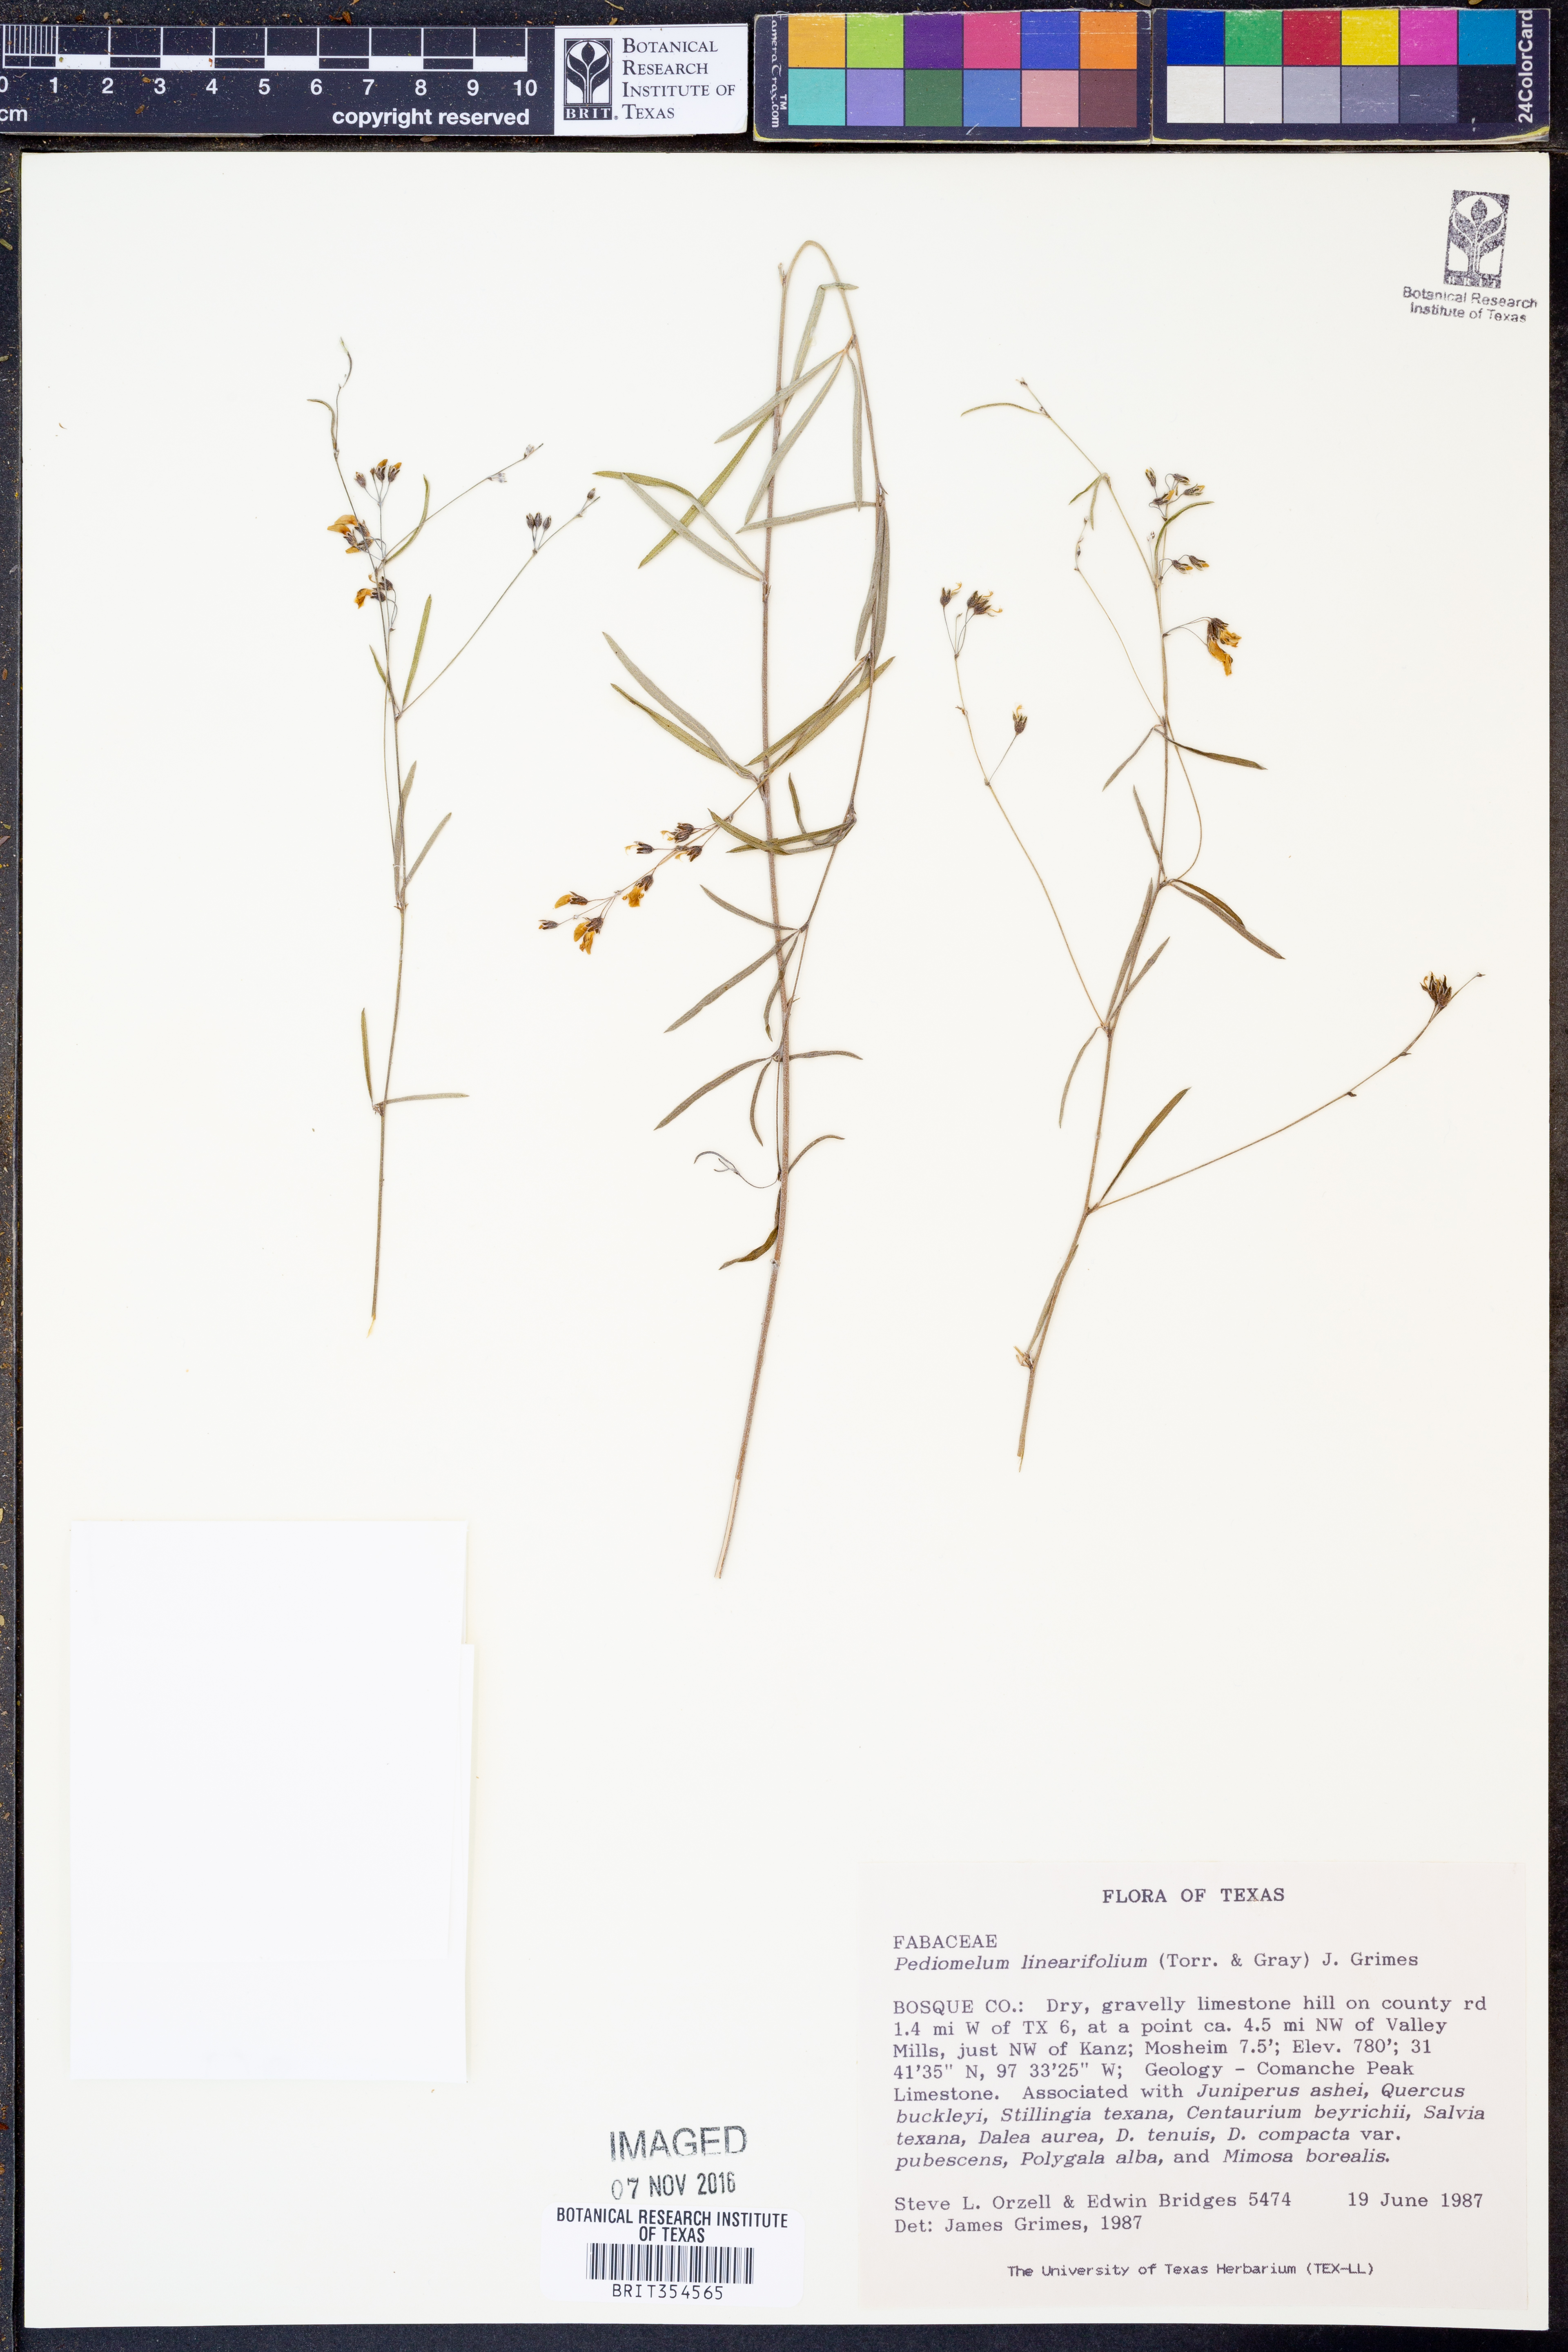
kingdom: Plantae
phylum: Tracheophyta
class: Magnoliopsida
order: Fabales
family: Fabaceae
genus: Pediomelum
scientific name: Pediomelum linearifolium
